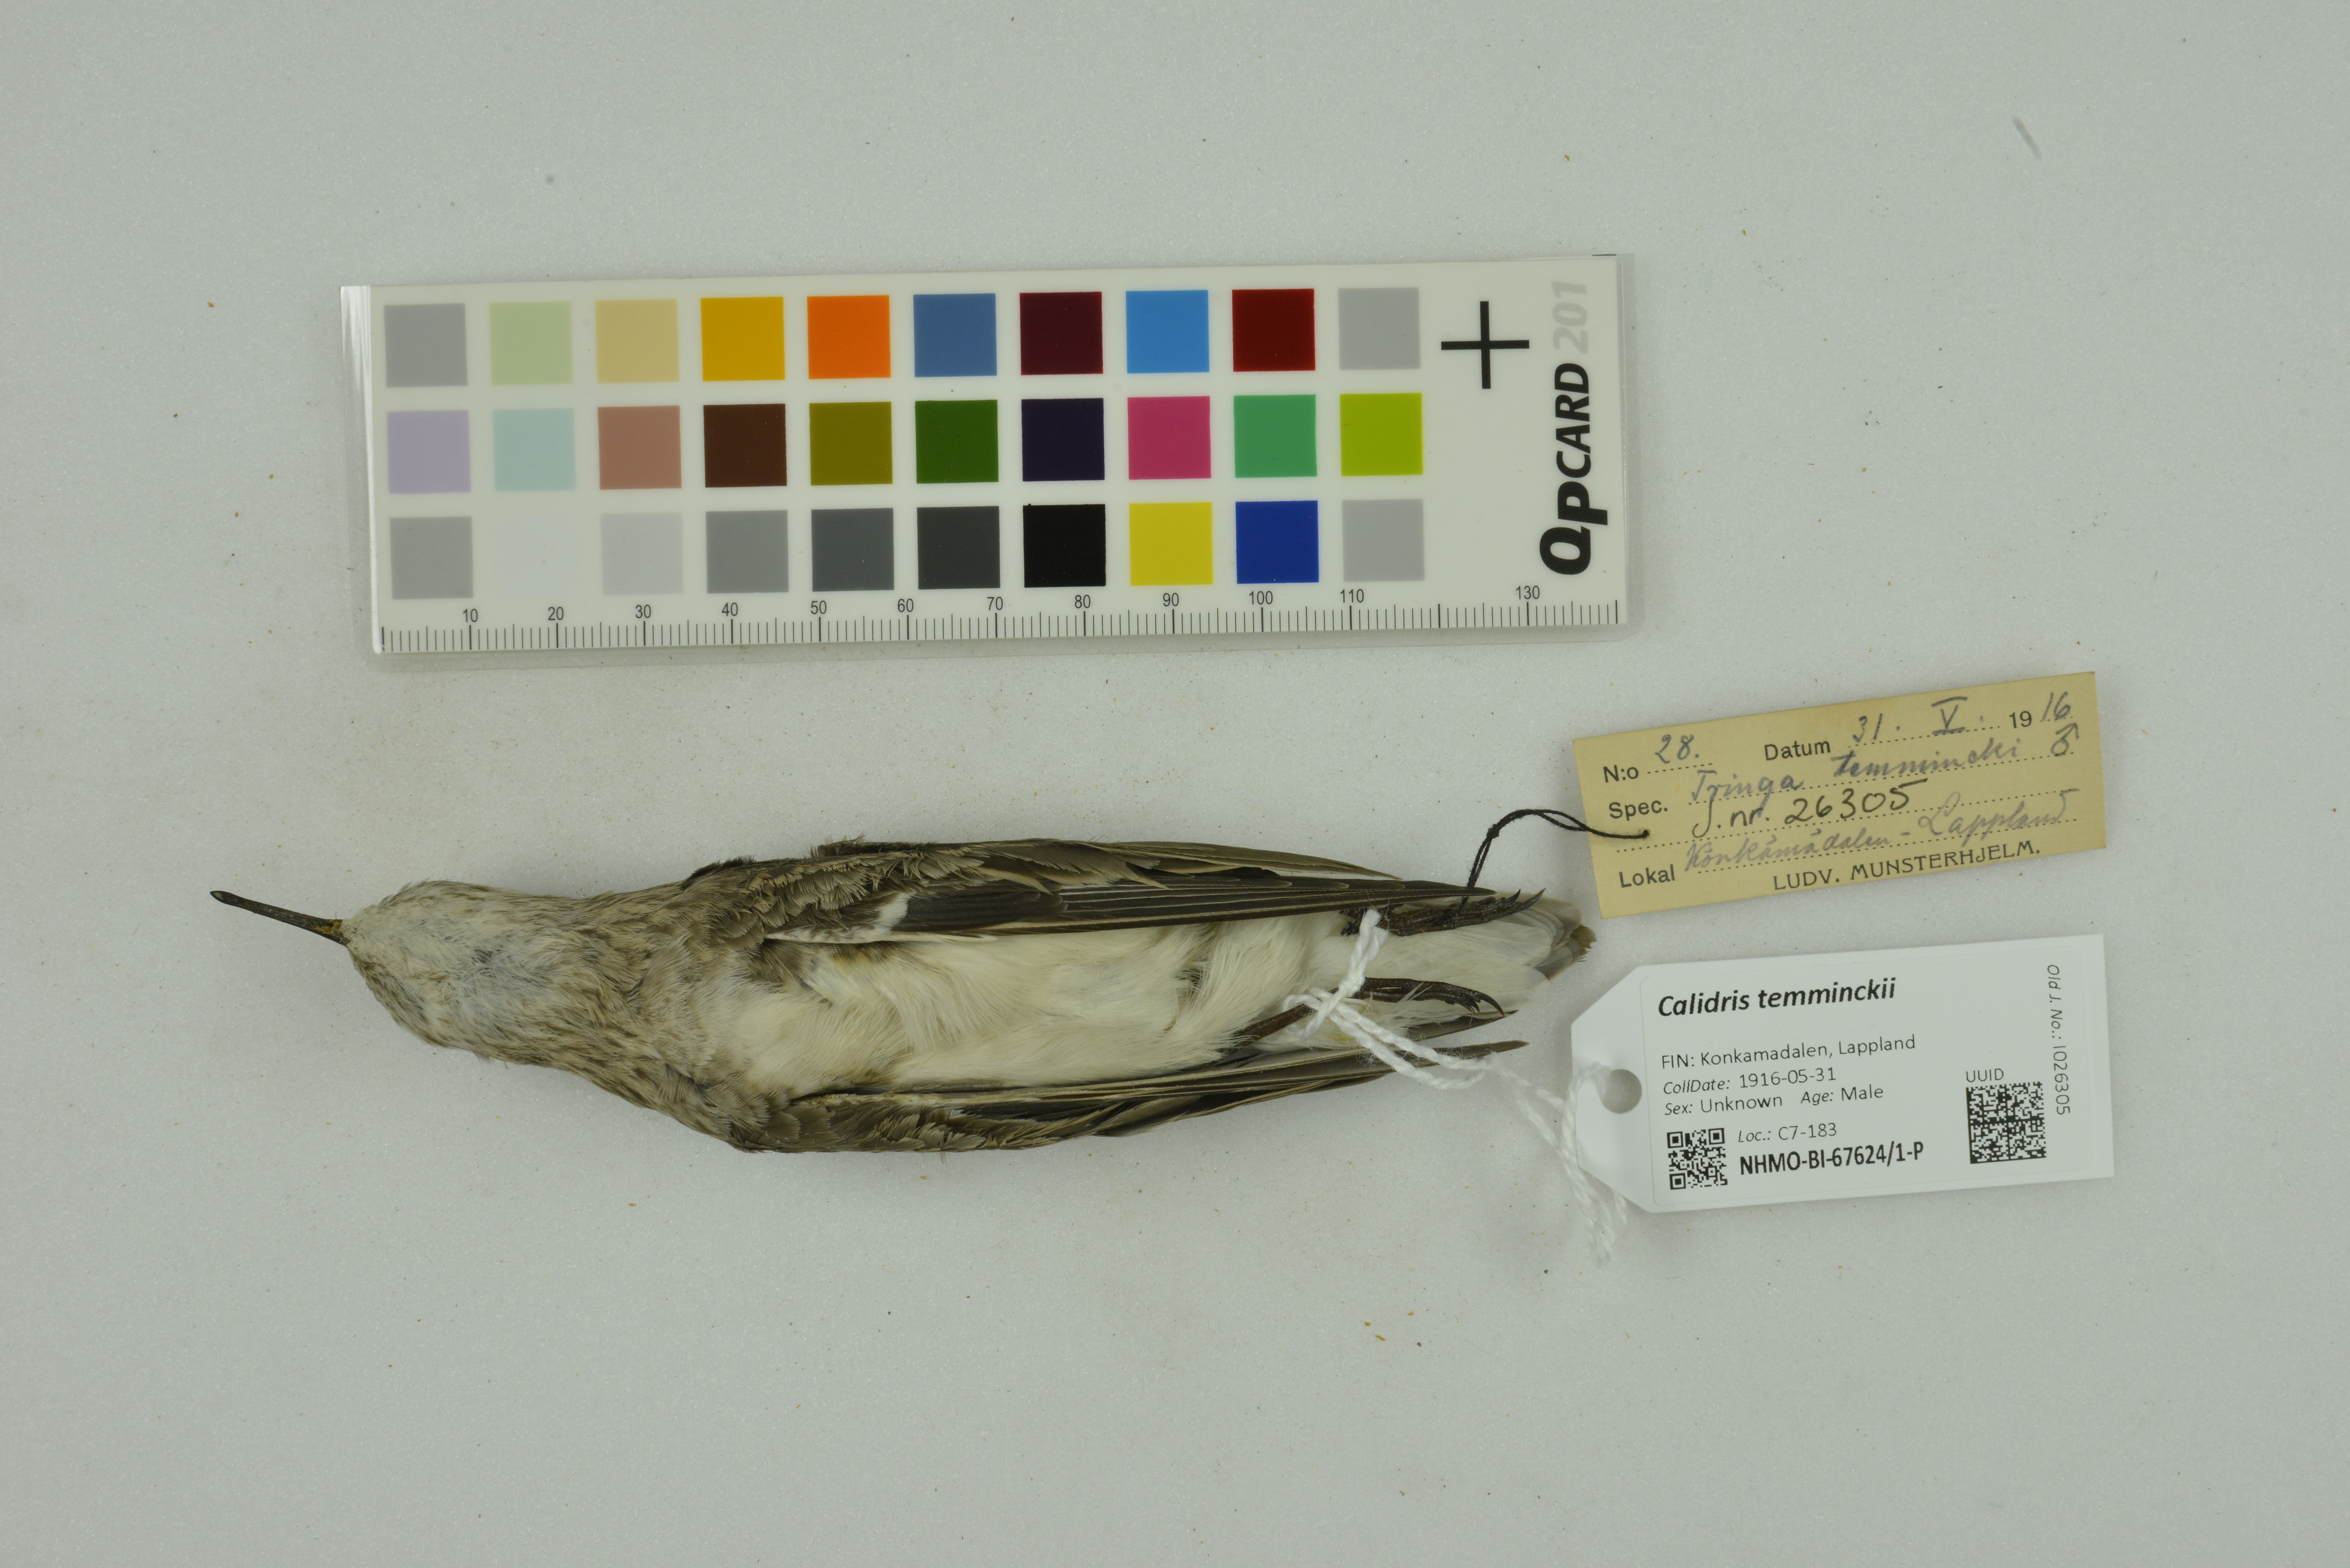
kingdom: Animalia
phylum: Chordata
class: Aves
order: Charadriiformes
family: Scolopacidae
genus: Calidris
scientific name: Calidris temminckii
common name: Temminck's stint
